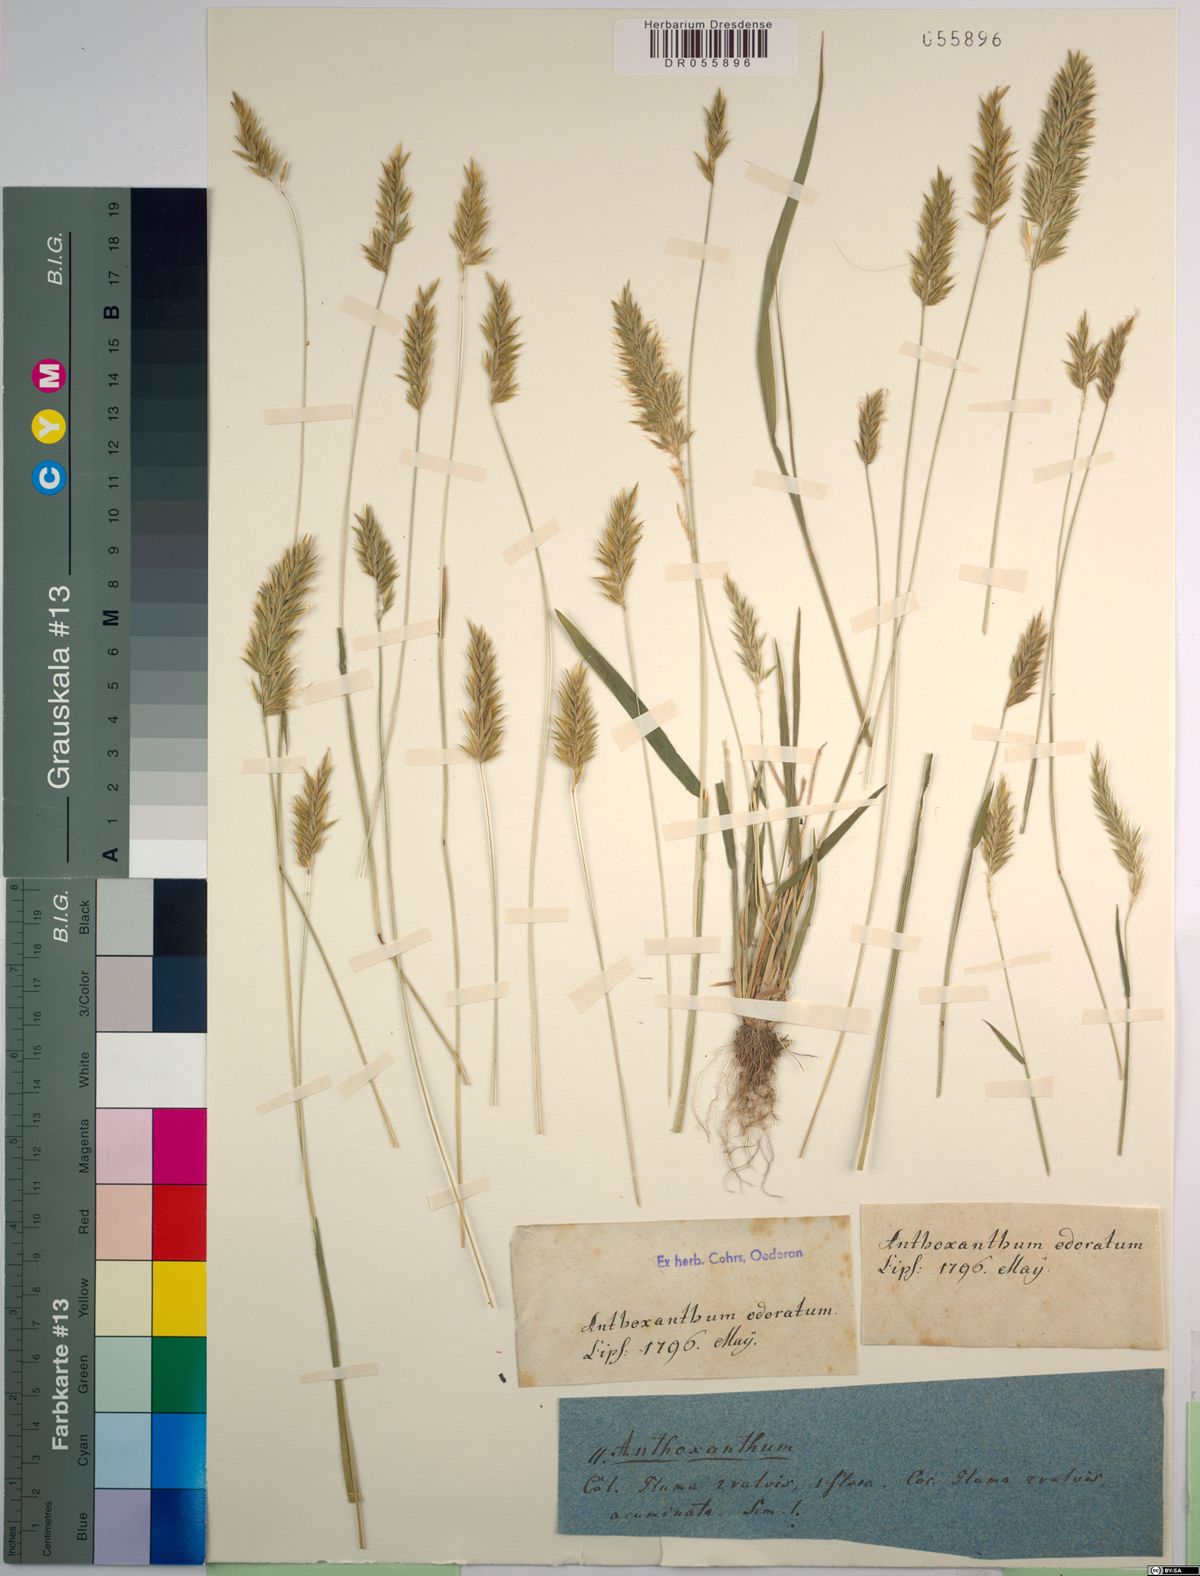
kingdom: Plantae
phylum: Tracheophyta
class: Liliopsida
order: Poales
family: Poaceae
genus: Anthoxanthum
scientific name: Anthoxanthum odoratum
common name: Sweet vernalgrass
